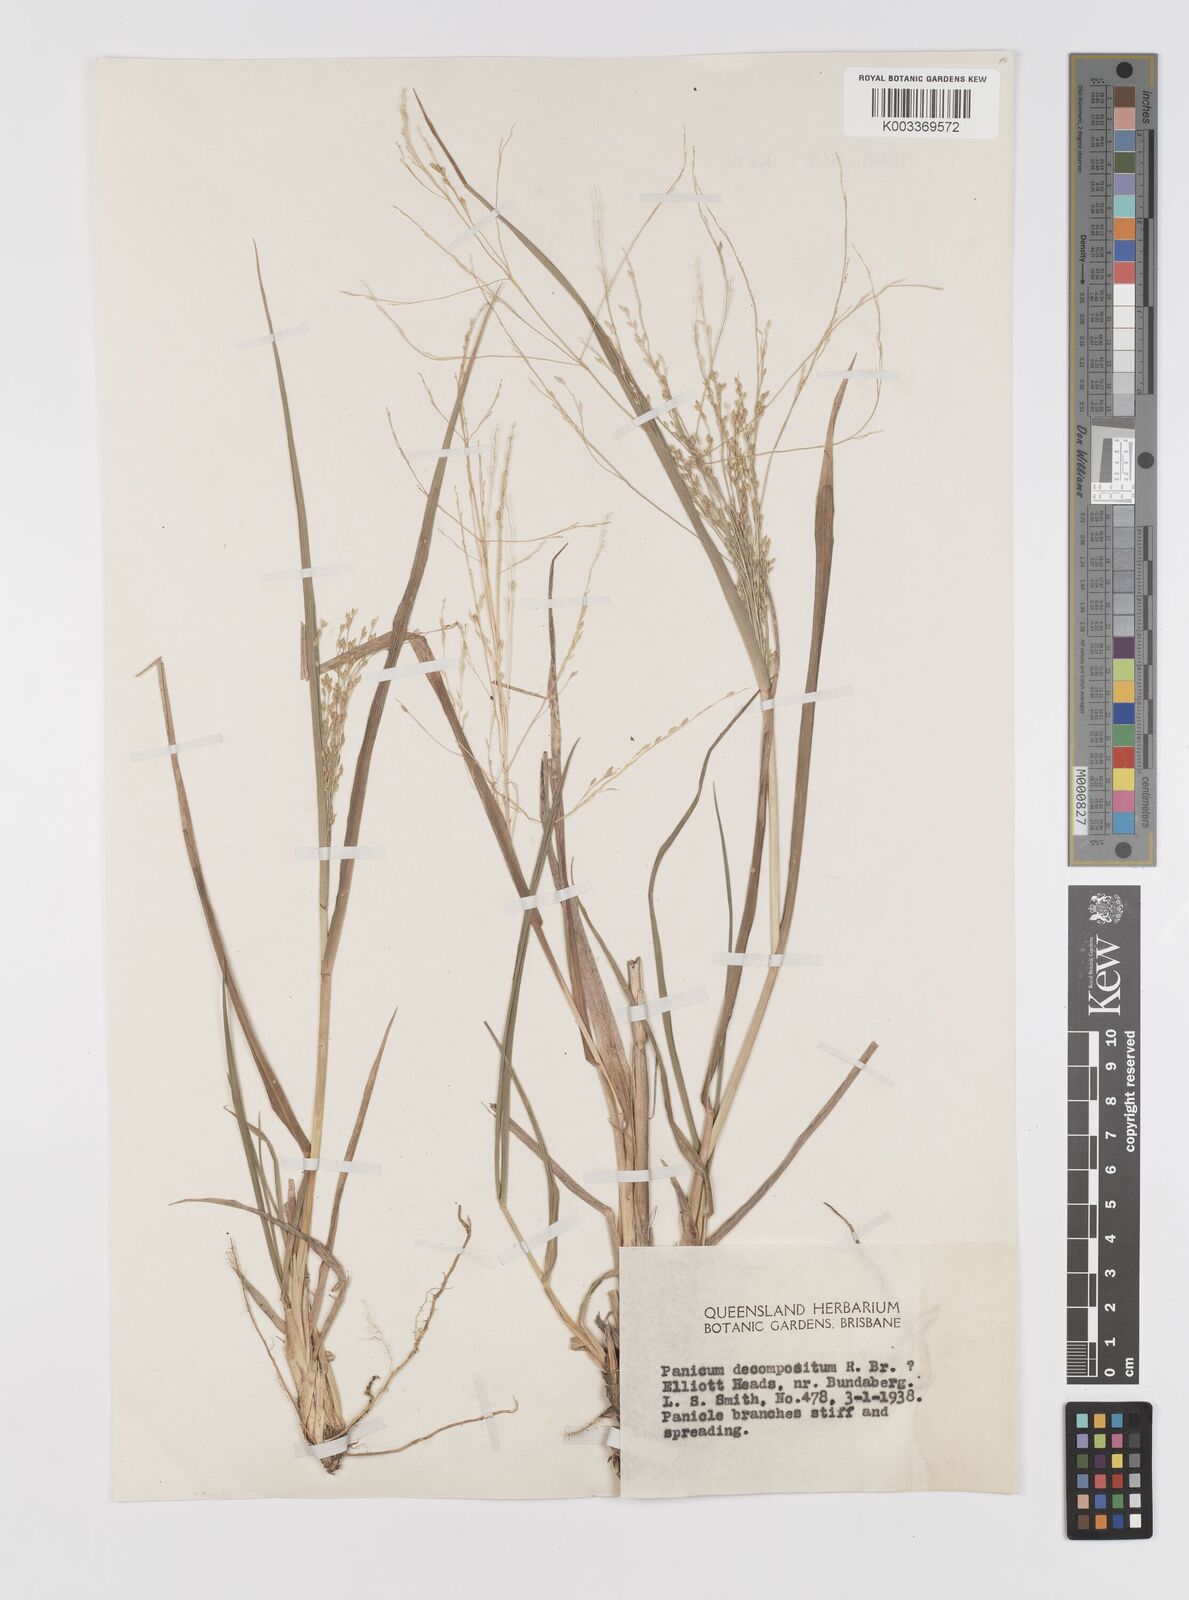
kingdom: Plantae
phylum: Tracheophyta
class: Liliopsida
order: Poales
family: Poaceae
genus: Panicum
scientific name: Panicum decompositum
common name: Australian millet
